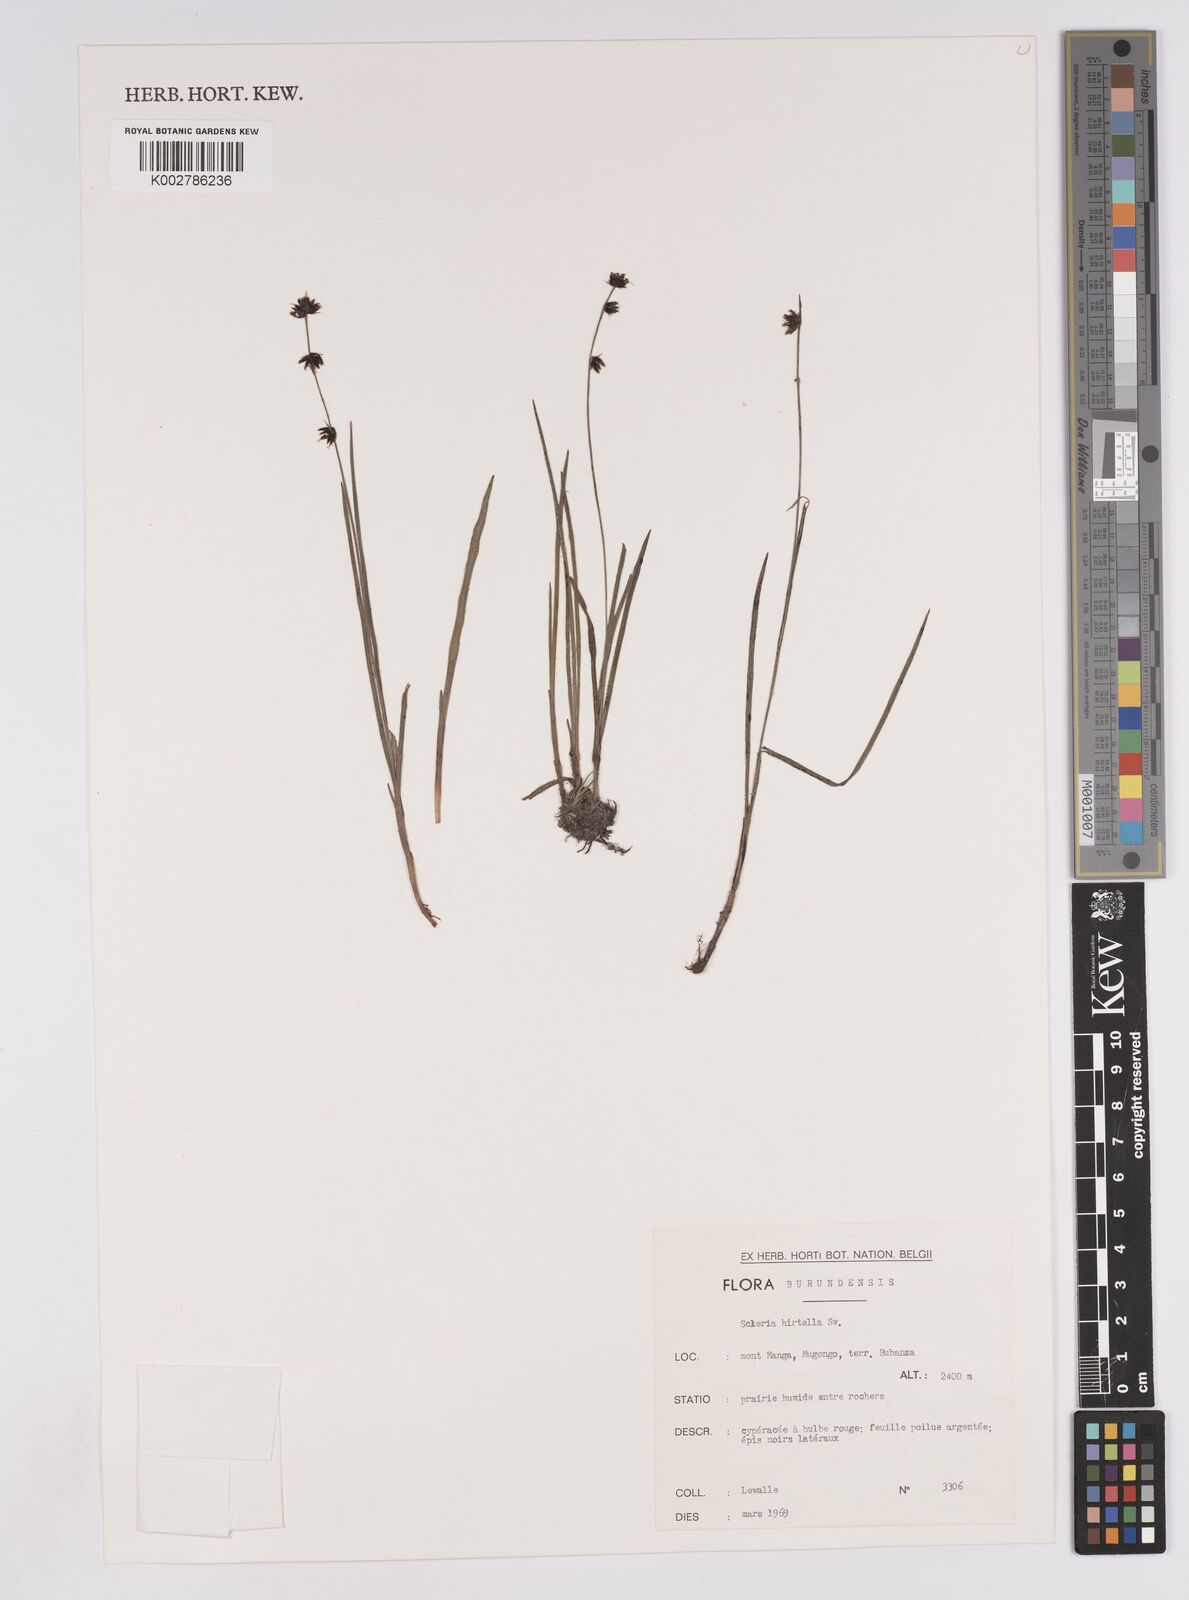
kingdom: Plantae
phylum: Tracheophyta
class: Liliopsida
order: Poales
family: Cyperaceae
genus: Scleria
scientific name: Scleria hirtella
